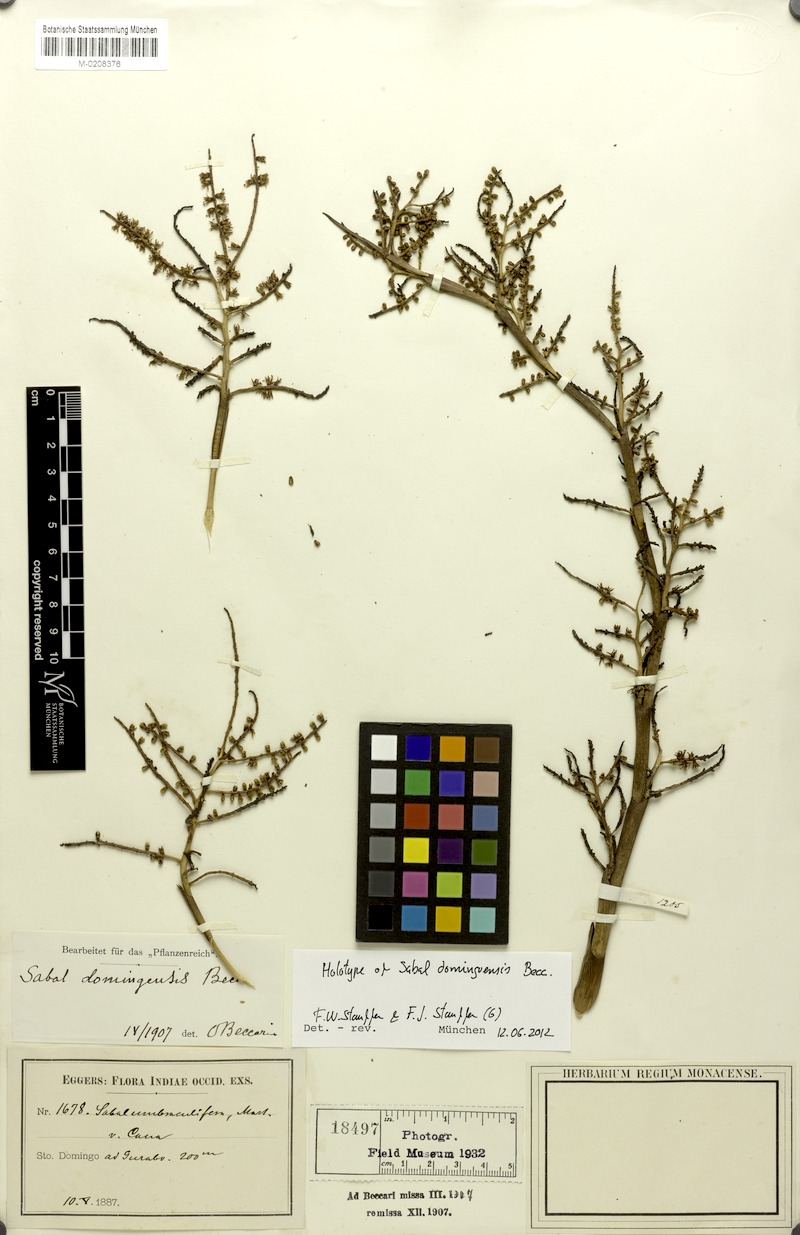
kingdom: Plantae
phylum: Tracheophyta
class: Liliopsida
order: Arecales
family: Arecaceae
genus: Sabal
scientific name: Sabal domingensis
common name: Hispaniola palmetto
